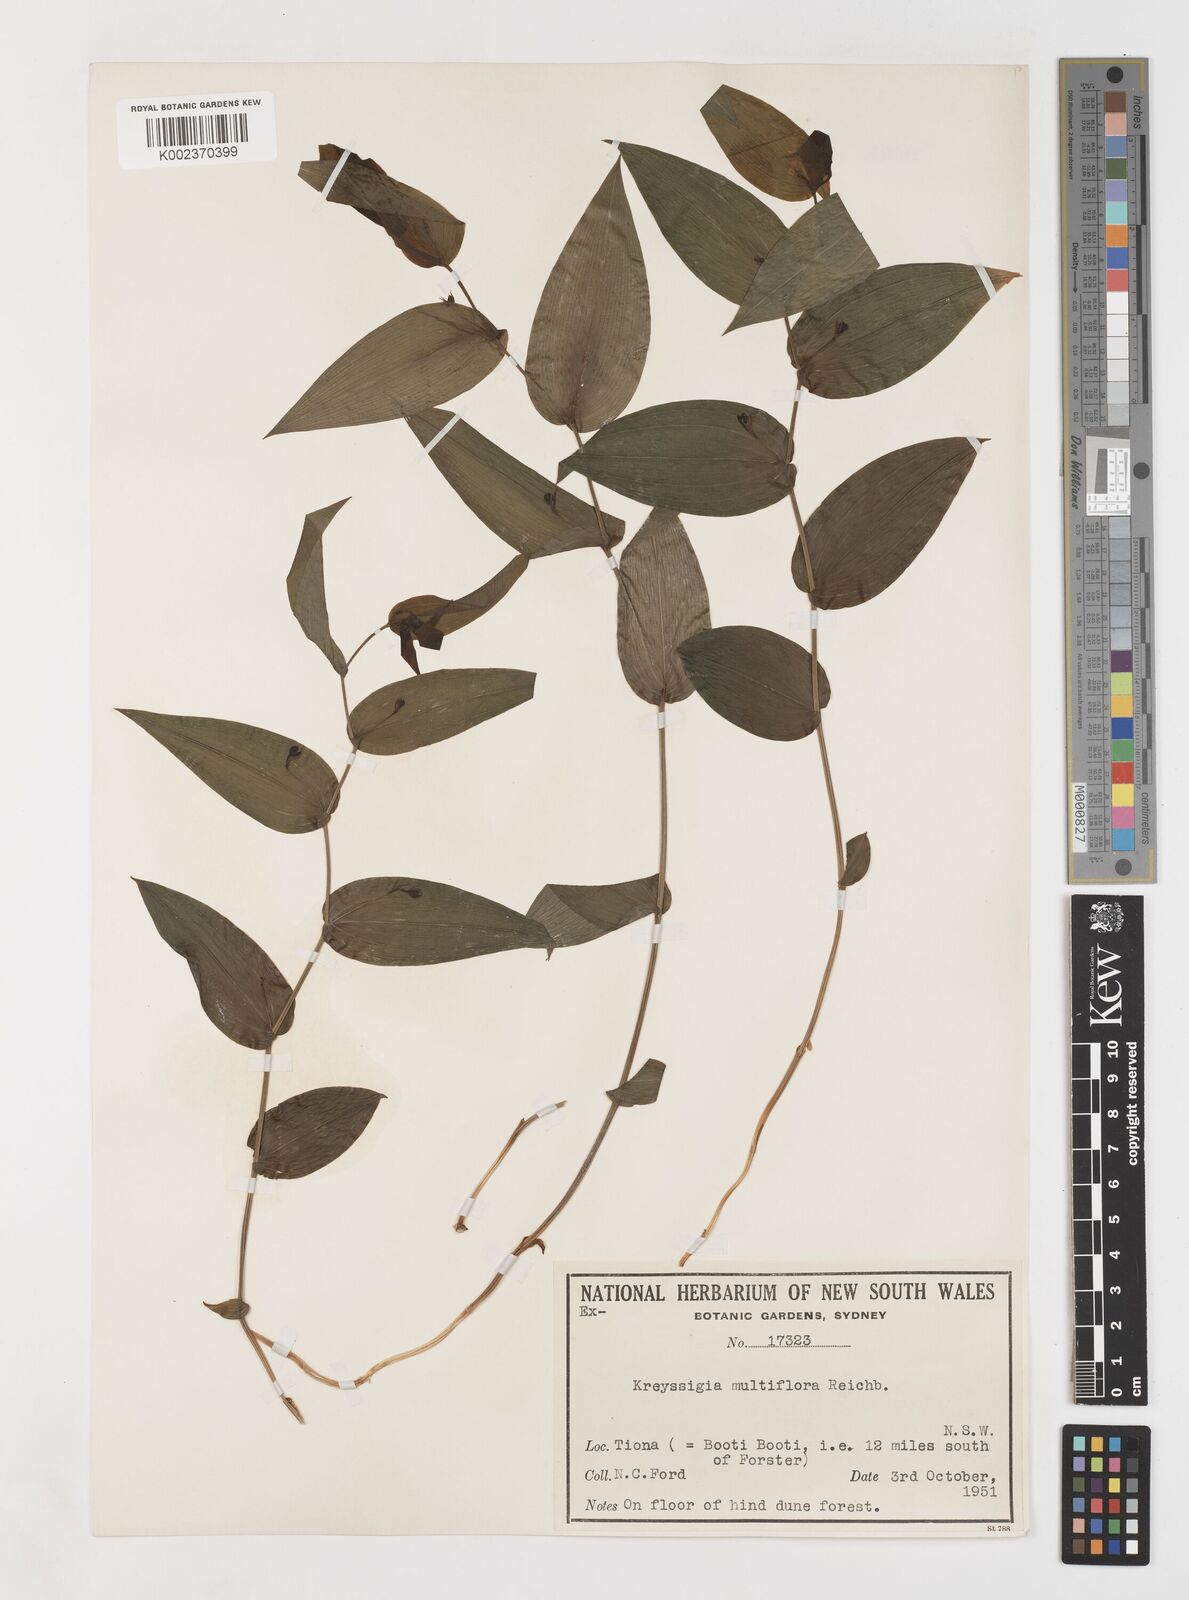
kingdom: Plantae
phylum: Tracheophyta
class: Liliopsida
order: Liliales
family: Colchicaceae
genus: Tripladenia
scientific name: Tripladenia
